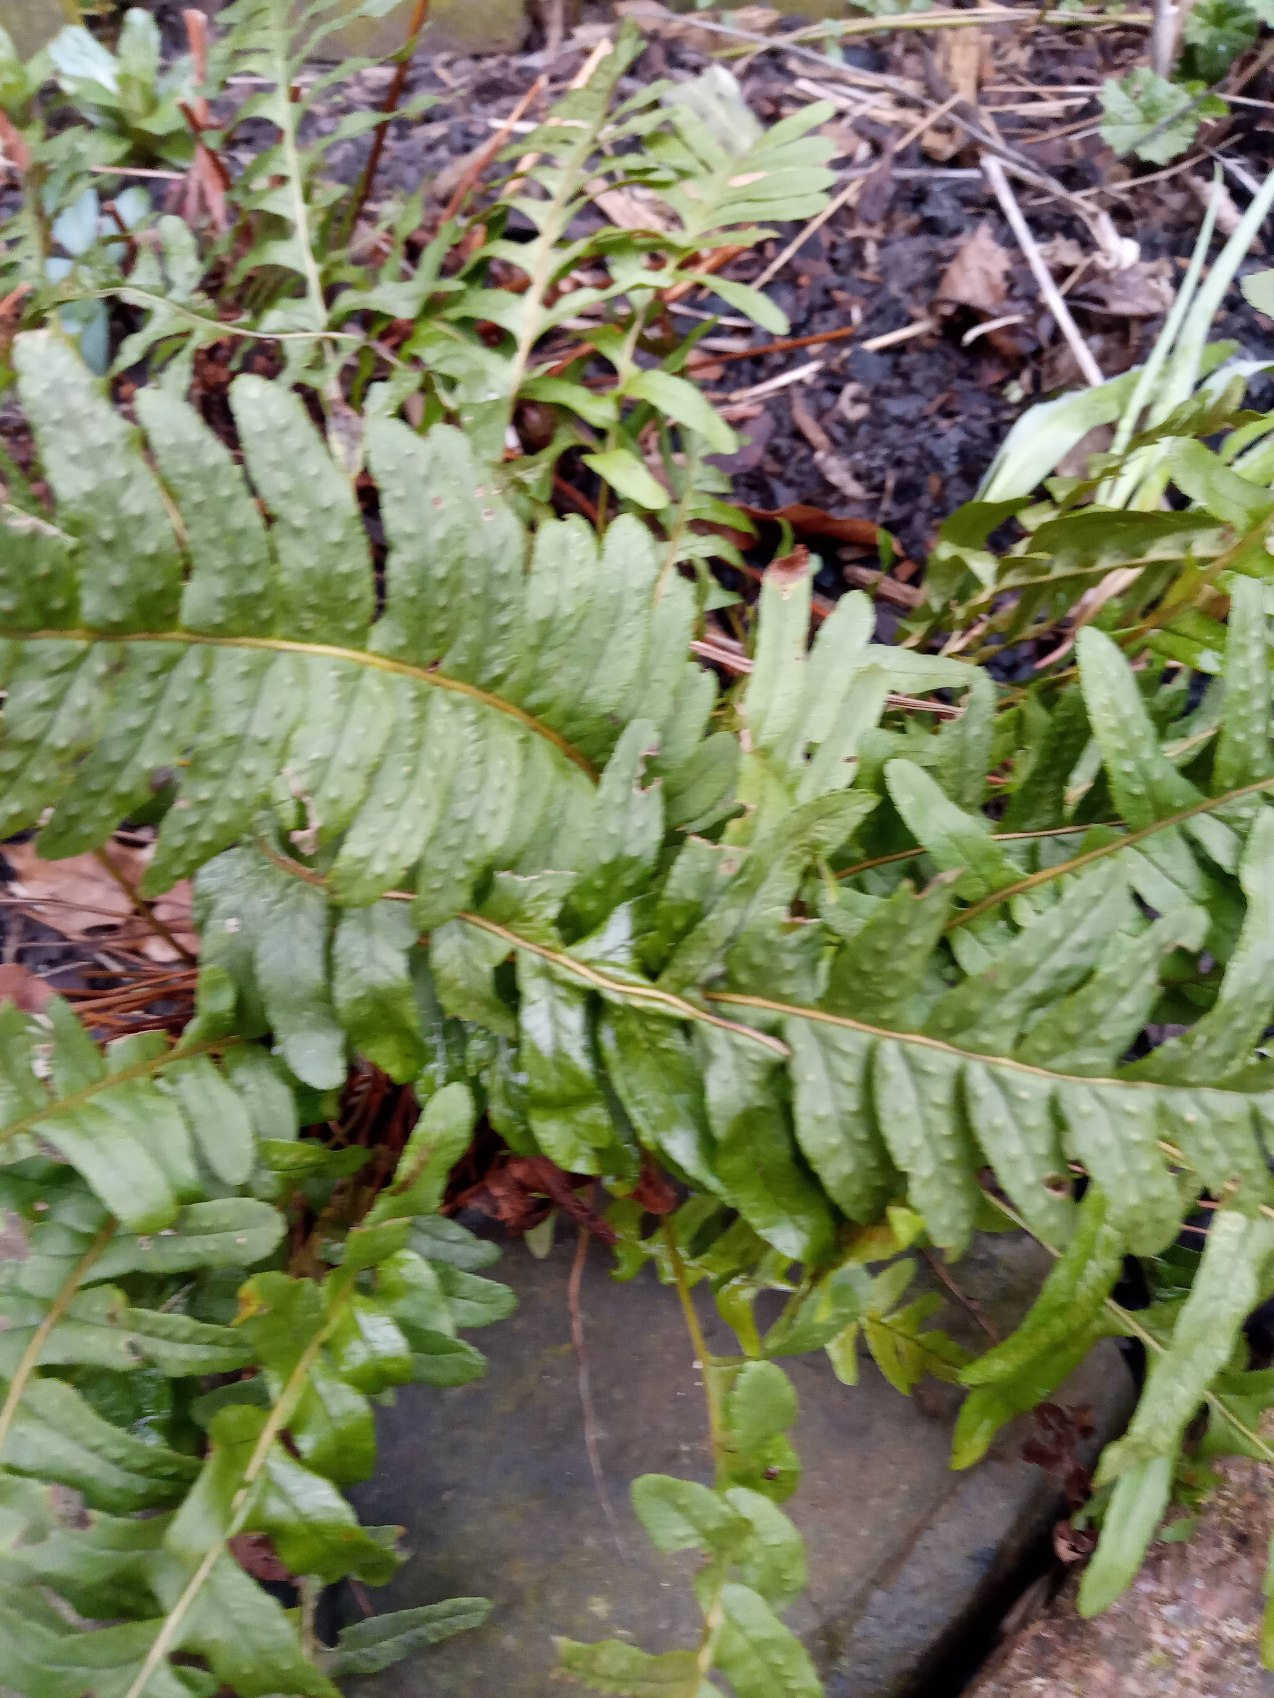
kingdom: Plantae
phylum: Tracheophyta
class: Polypodiopsida
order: Polypodiales
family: Polypodiaceae
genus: Polypodium
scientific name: Polypodium vulgare
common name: Almindelig engelsød
